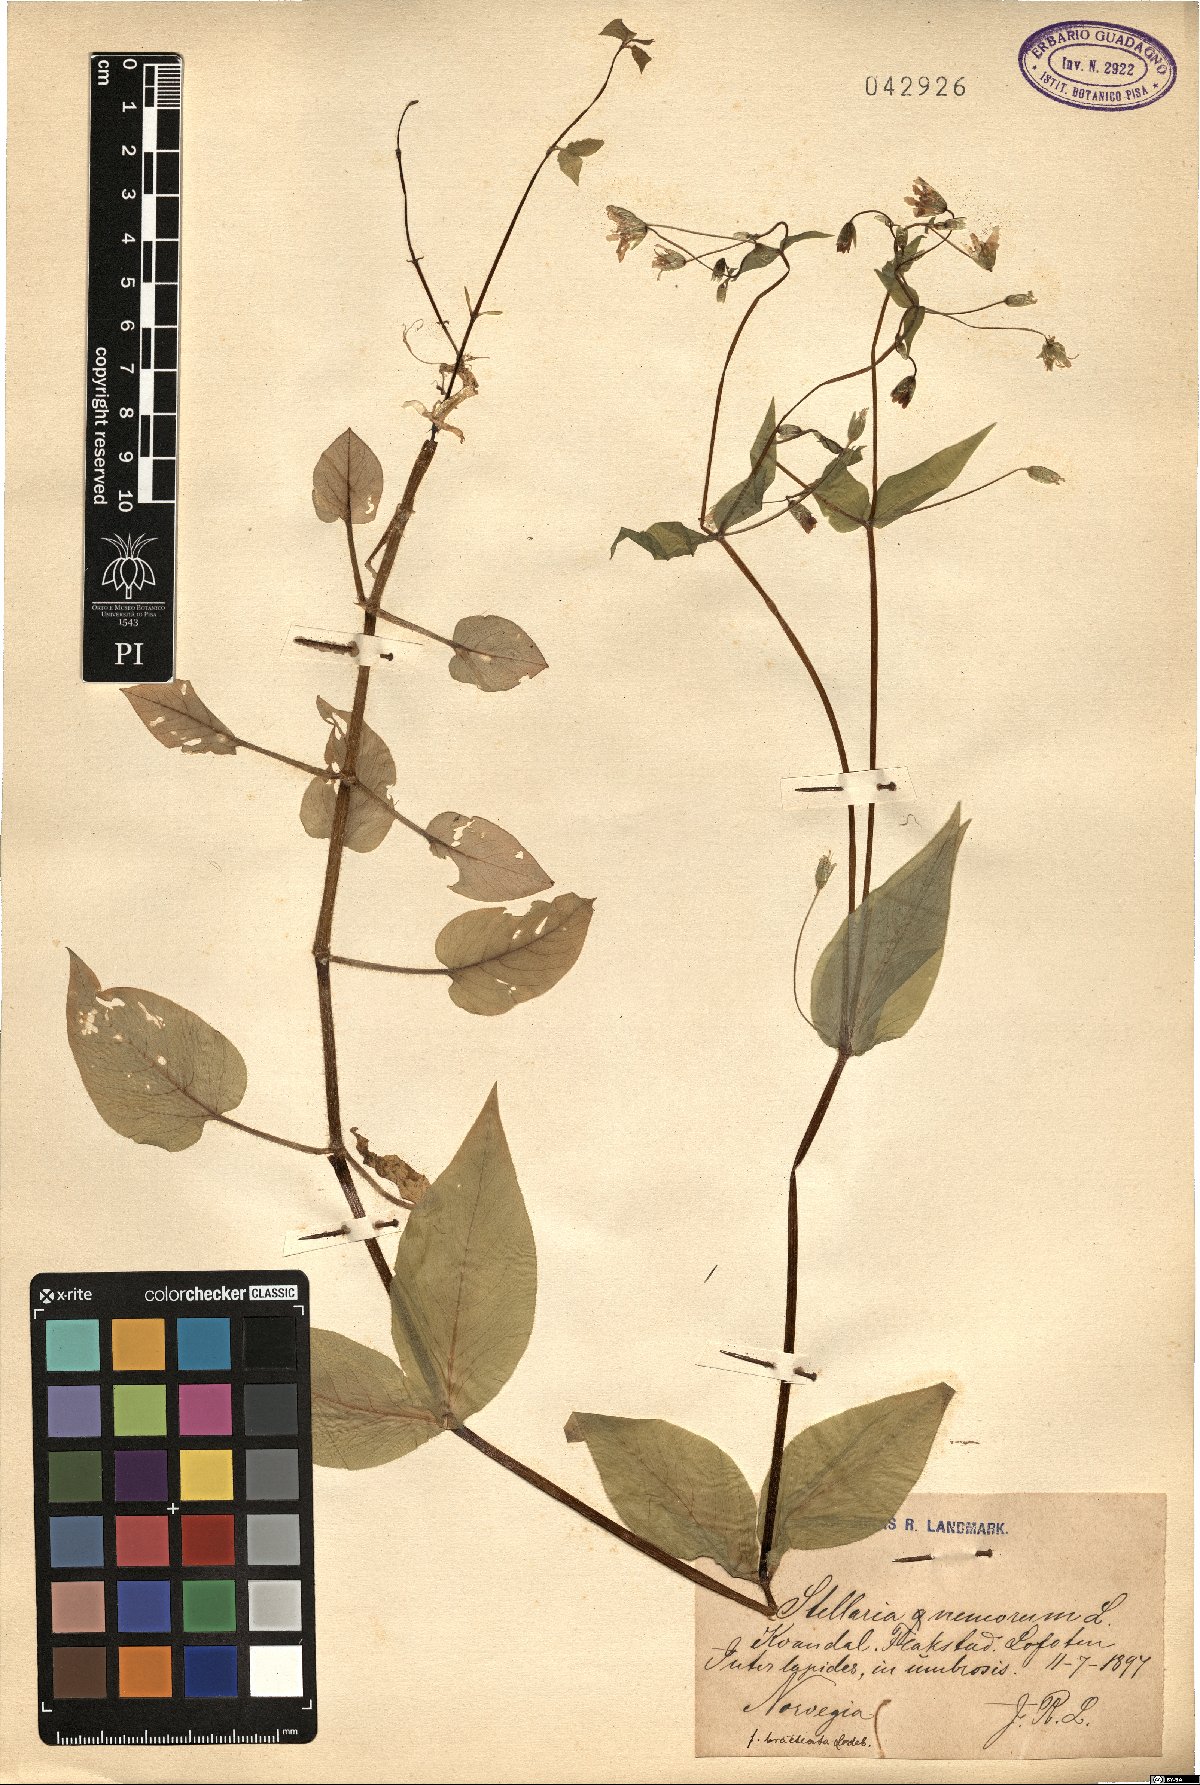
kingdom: Plantae
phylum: Tracheophyta
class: Magnoliopsida
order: Caryophyllales
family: Caryophyllaceae
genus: Stellaria
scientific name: Stellaria nemorum
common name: Wood stitchwort
